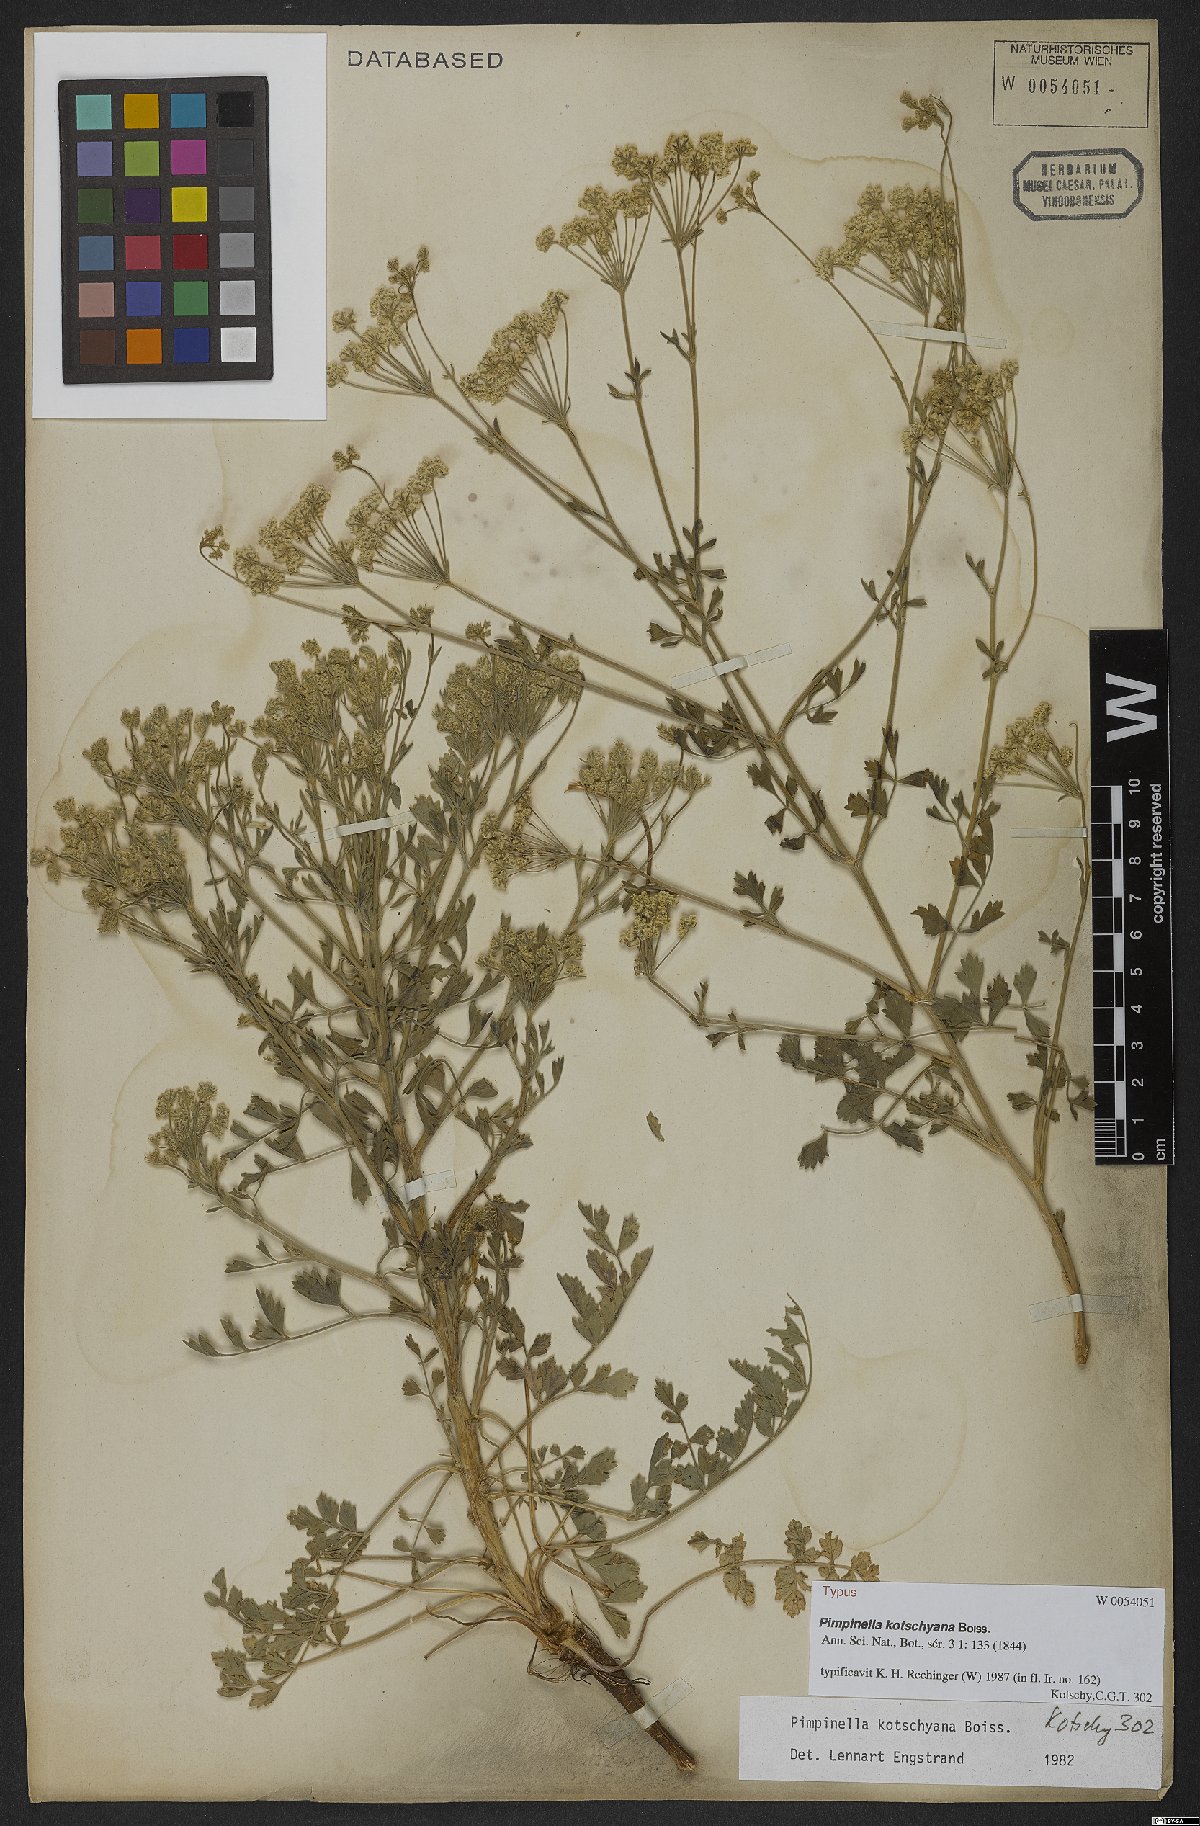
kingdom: Plantae
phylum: Tracheophyta
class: Magnoliopsida
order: Apiales
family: Apiaceae
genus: Pimpinella
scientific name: Pimpinella kotschyana
